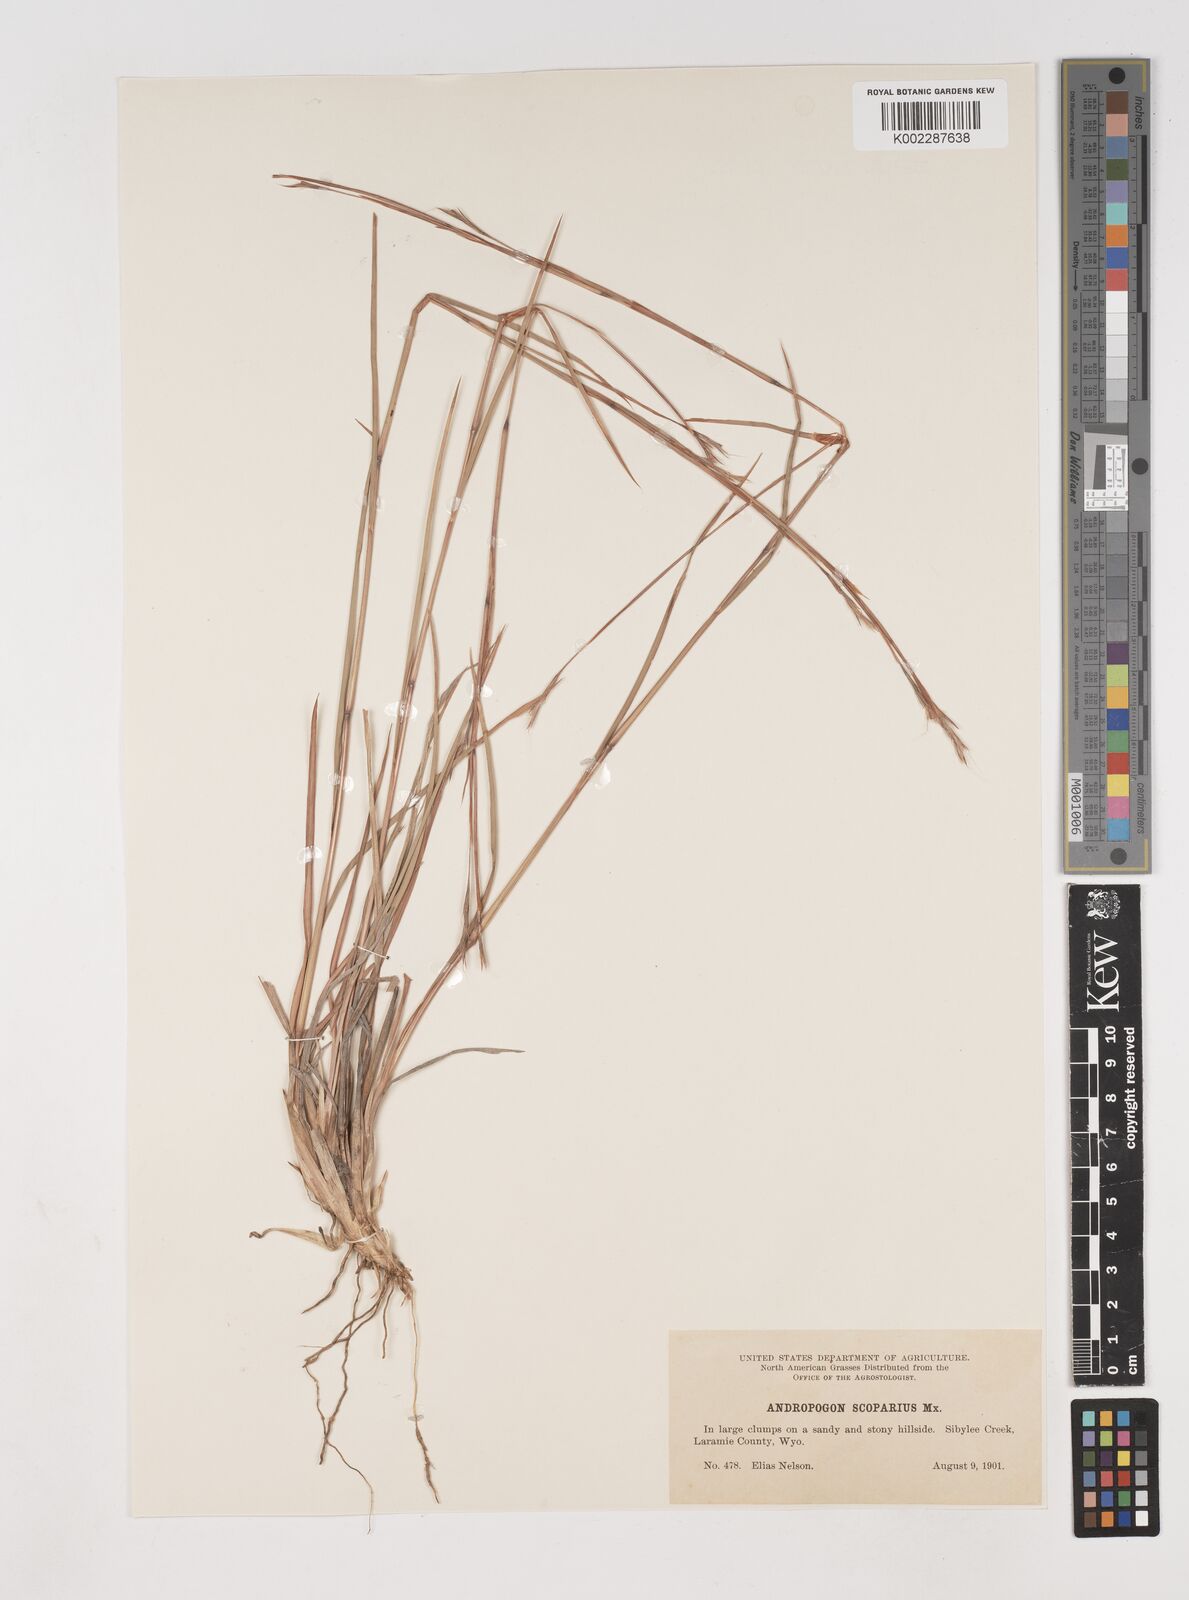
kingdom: Plantae
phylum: Tracheophyta
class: Liliopsida
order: Poales
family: Poaceae
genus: Schizachyrium
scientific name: Schizachyrium scoparium
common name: Little bluestem
